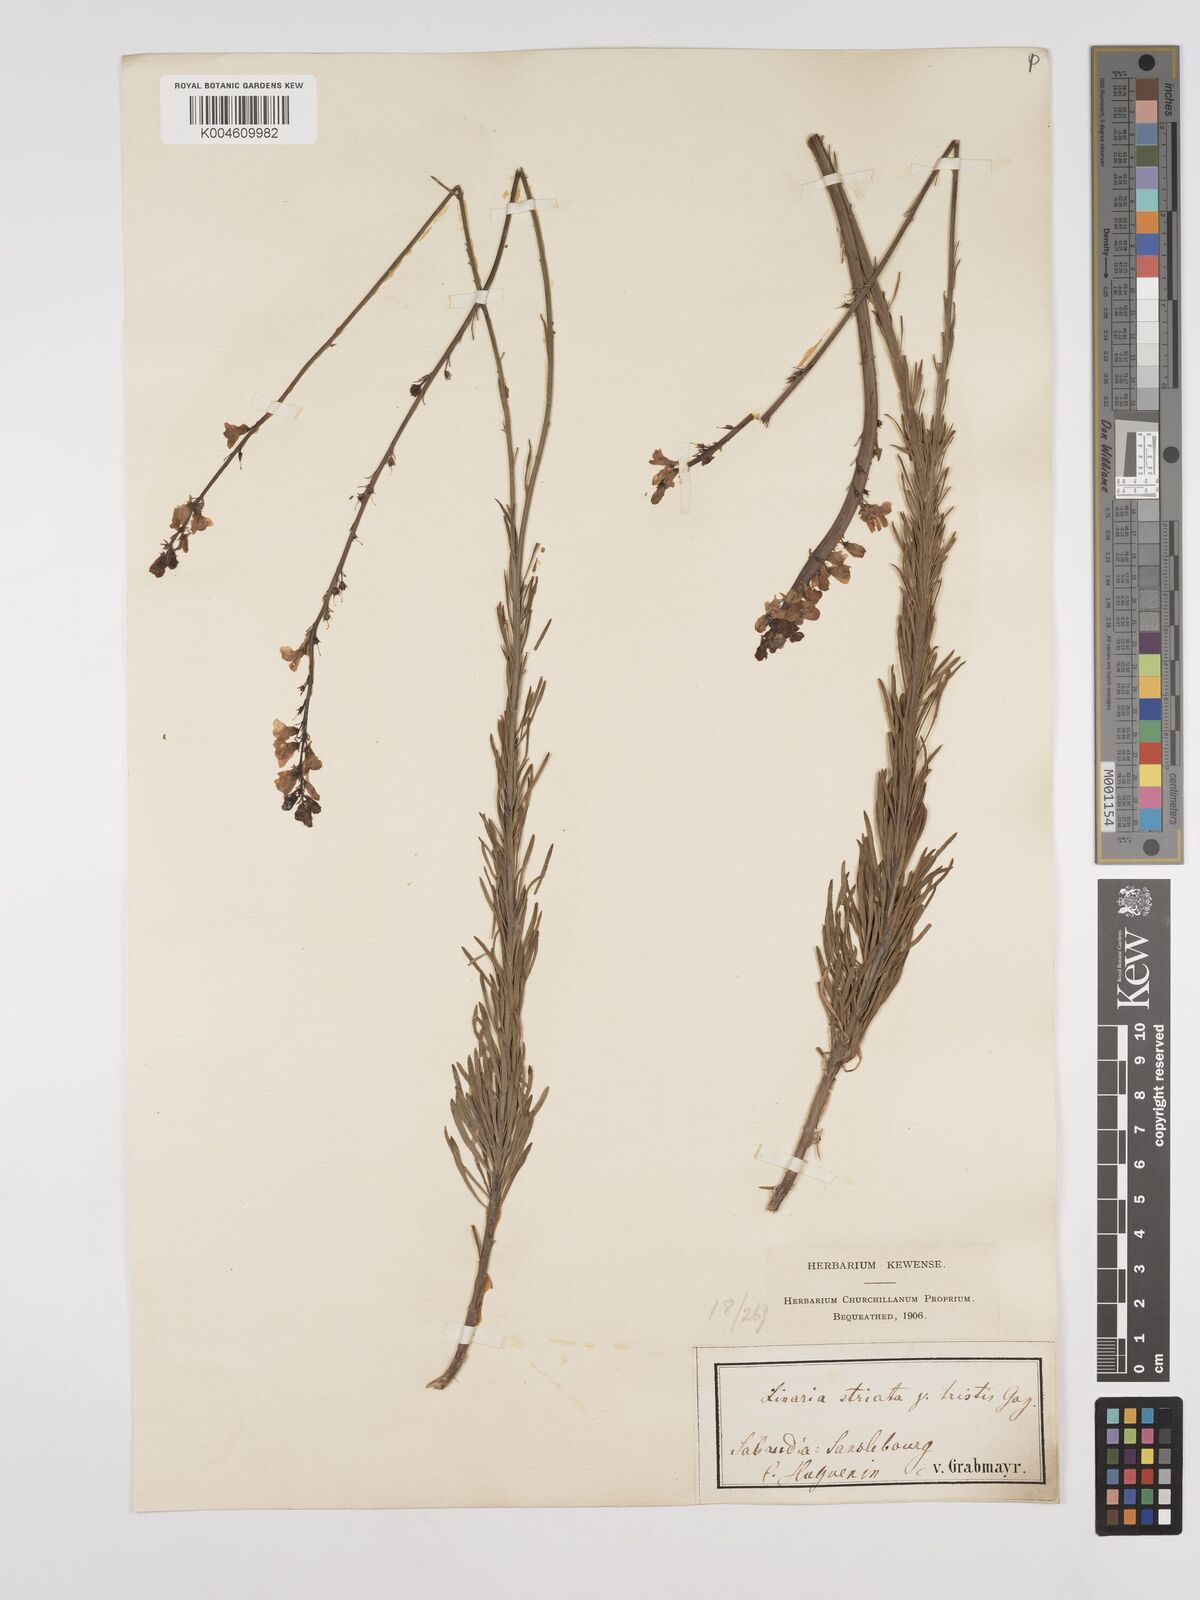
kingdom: Plantae
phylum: Tracheophyta
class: Magnoliopsida
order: Lamiales
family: Plantaginaceae
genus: Linaria
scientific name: Linaria
